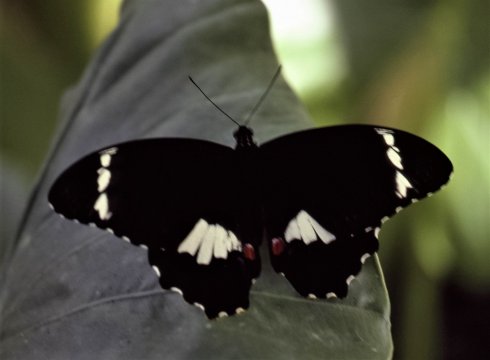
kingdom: Animalia
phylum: Arthropoda
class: Insecta
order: Lepidoptera
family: Papilionidae
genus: Papilio
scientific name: Papilio aegeus
